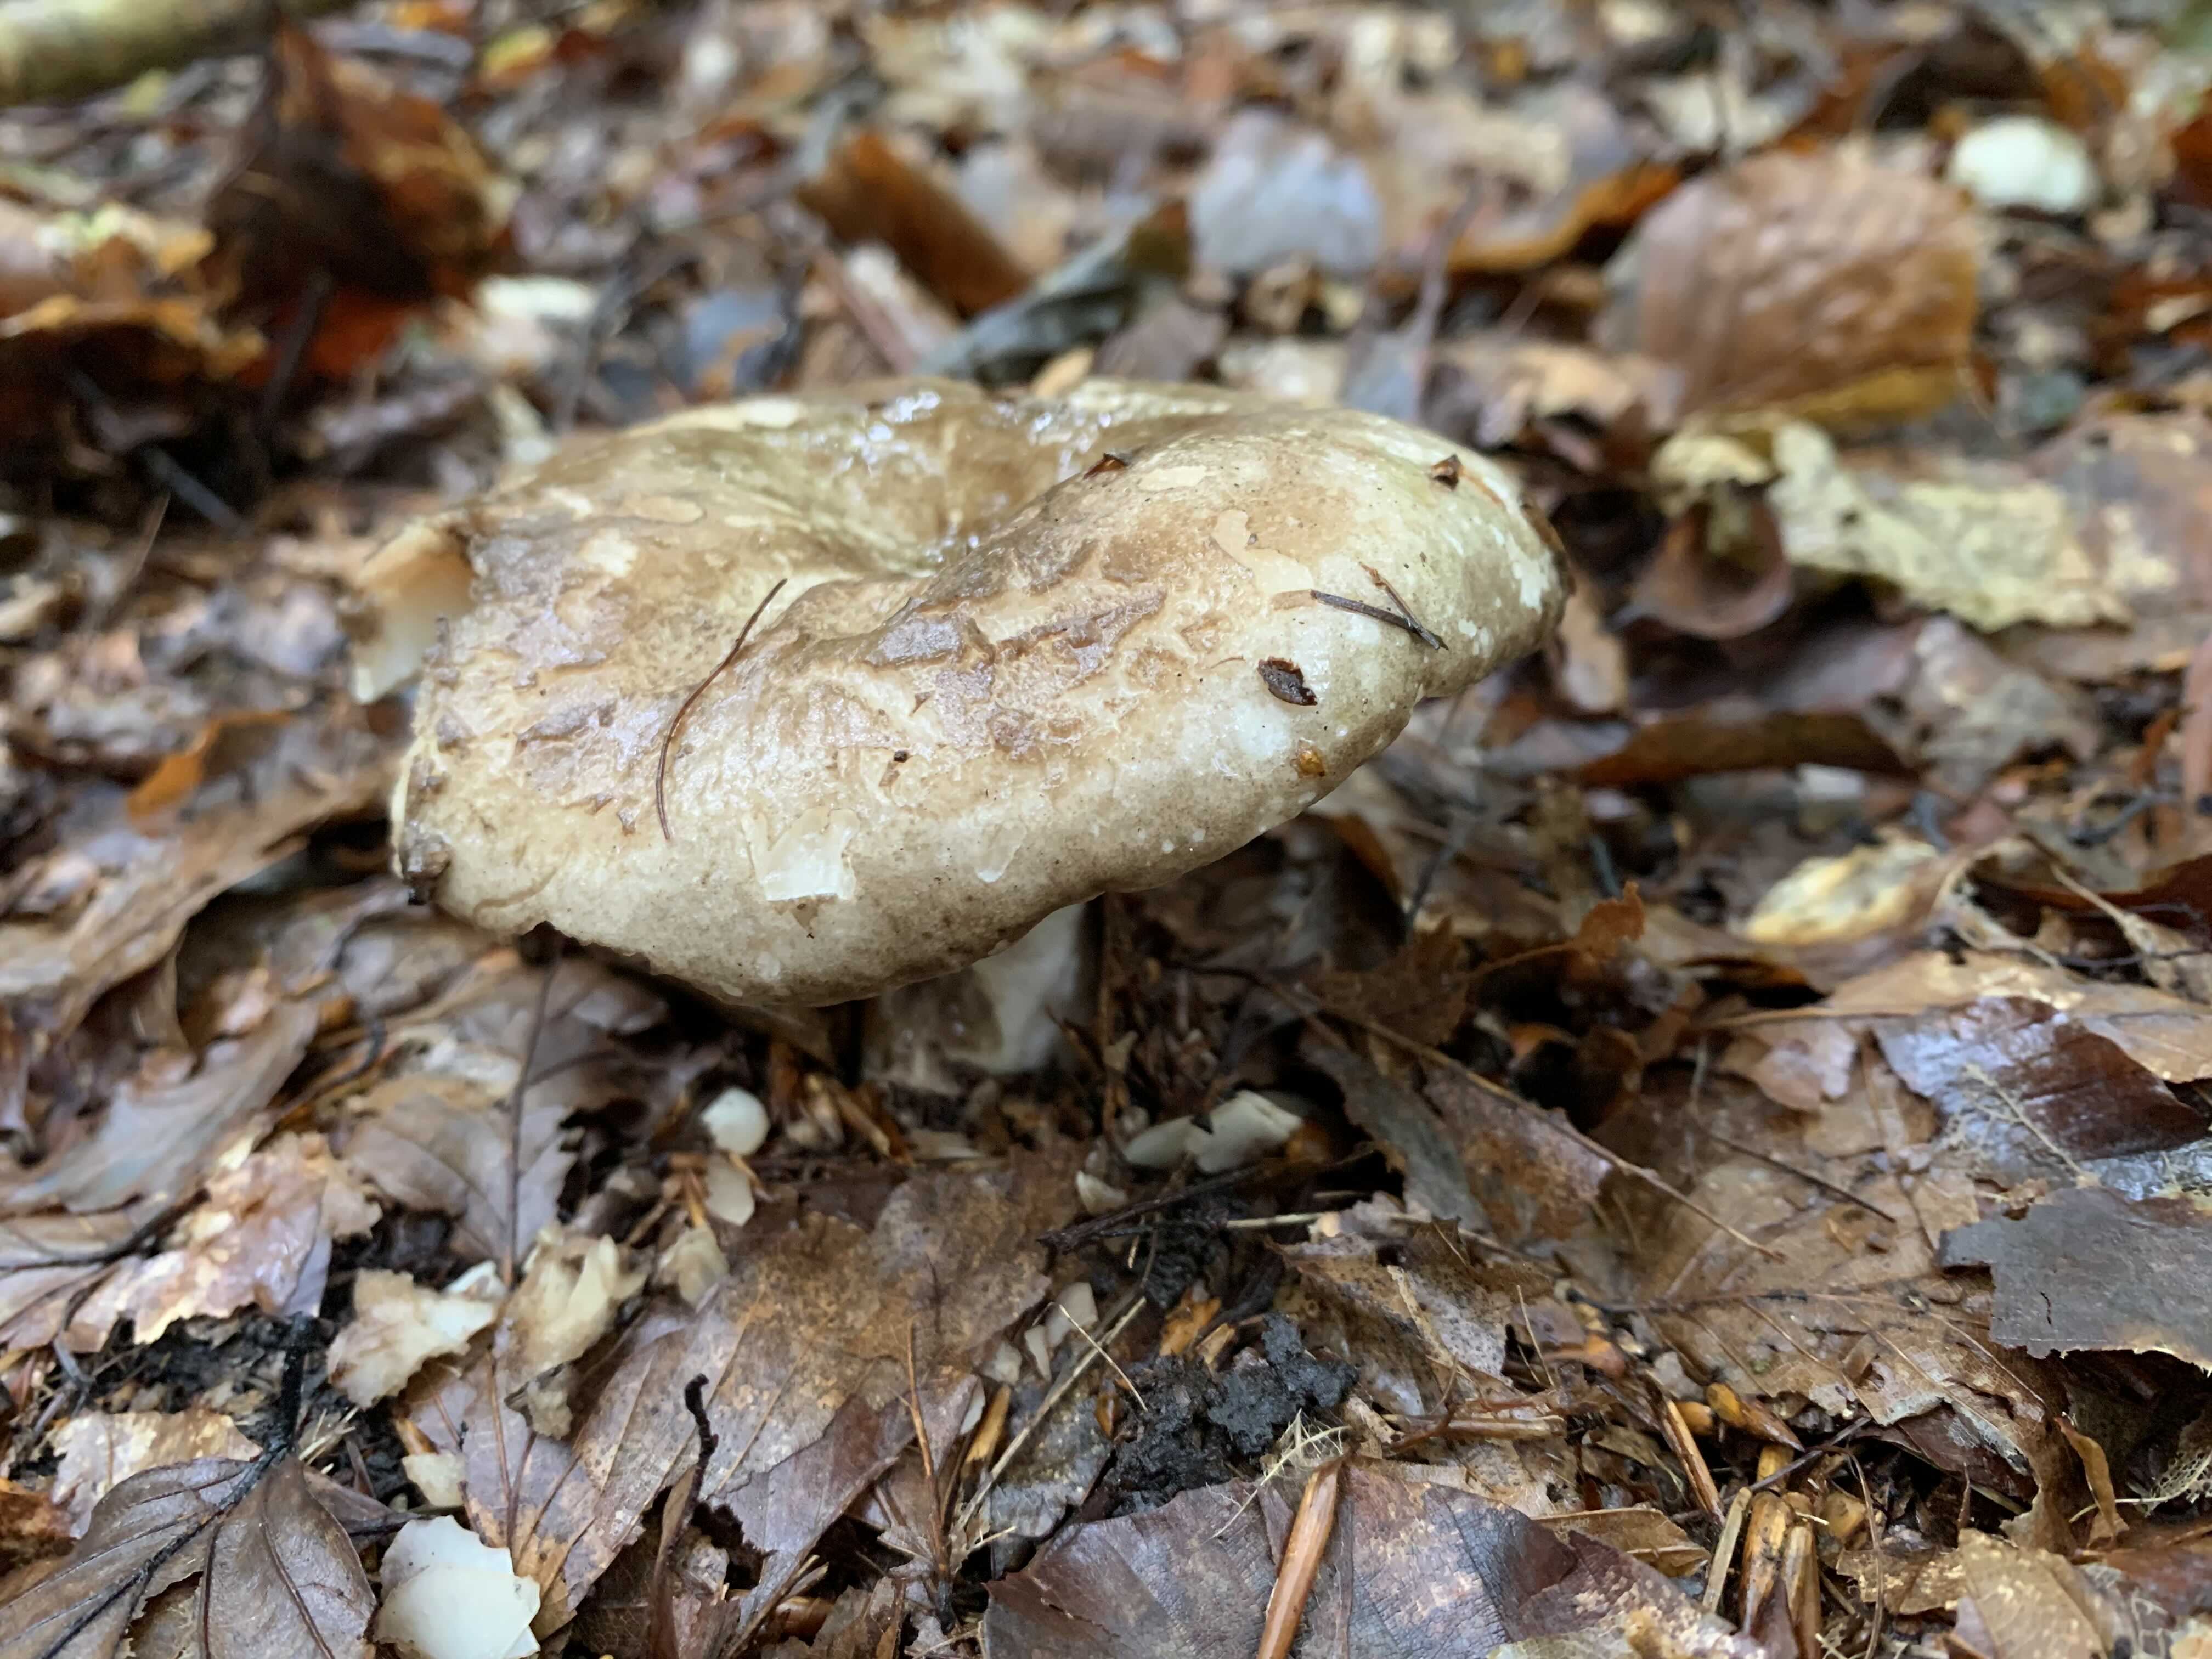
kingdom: Fungi
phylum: Basidiomycota
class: Agaricomycetes
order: Russulales
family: Russulaceae
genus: Russula
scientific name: Russula adusta
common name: sværtende skørhat
